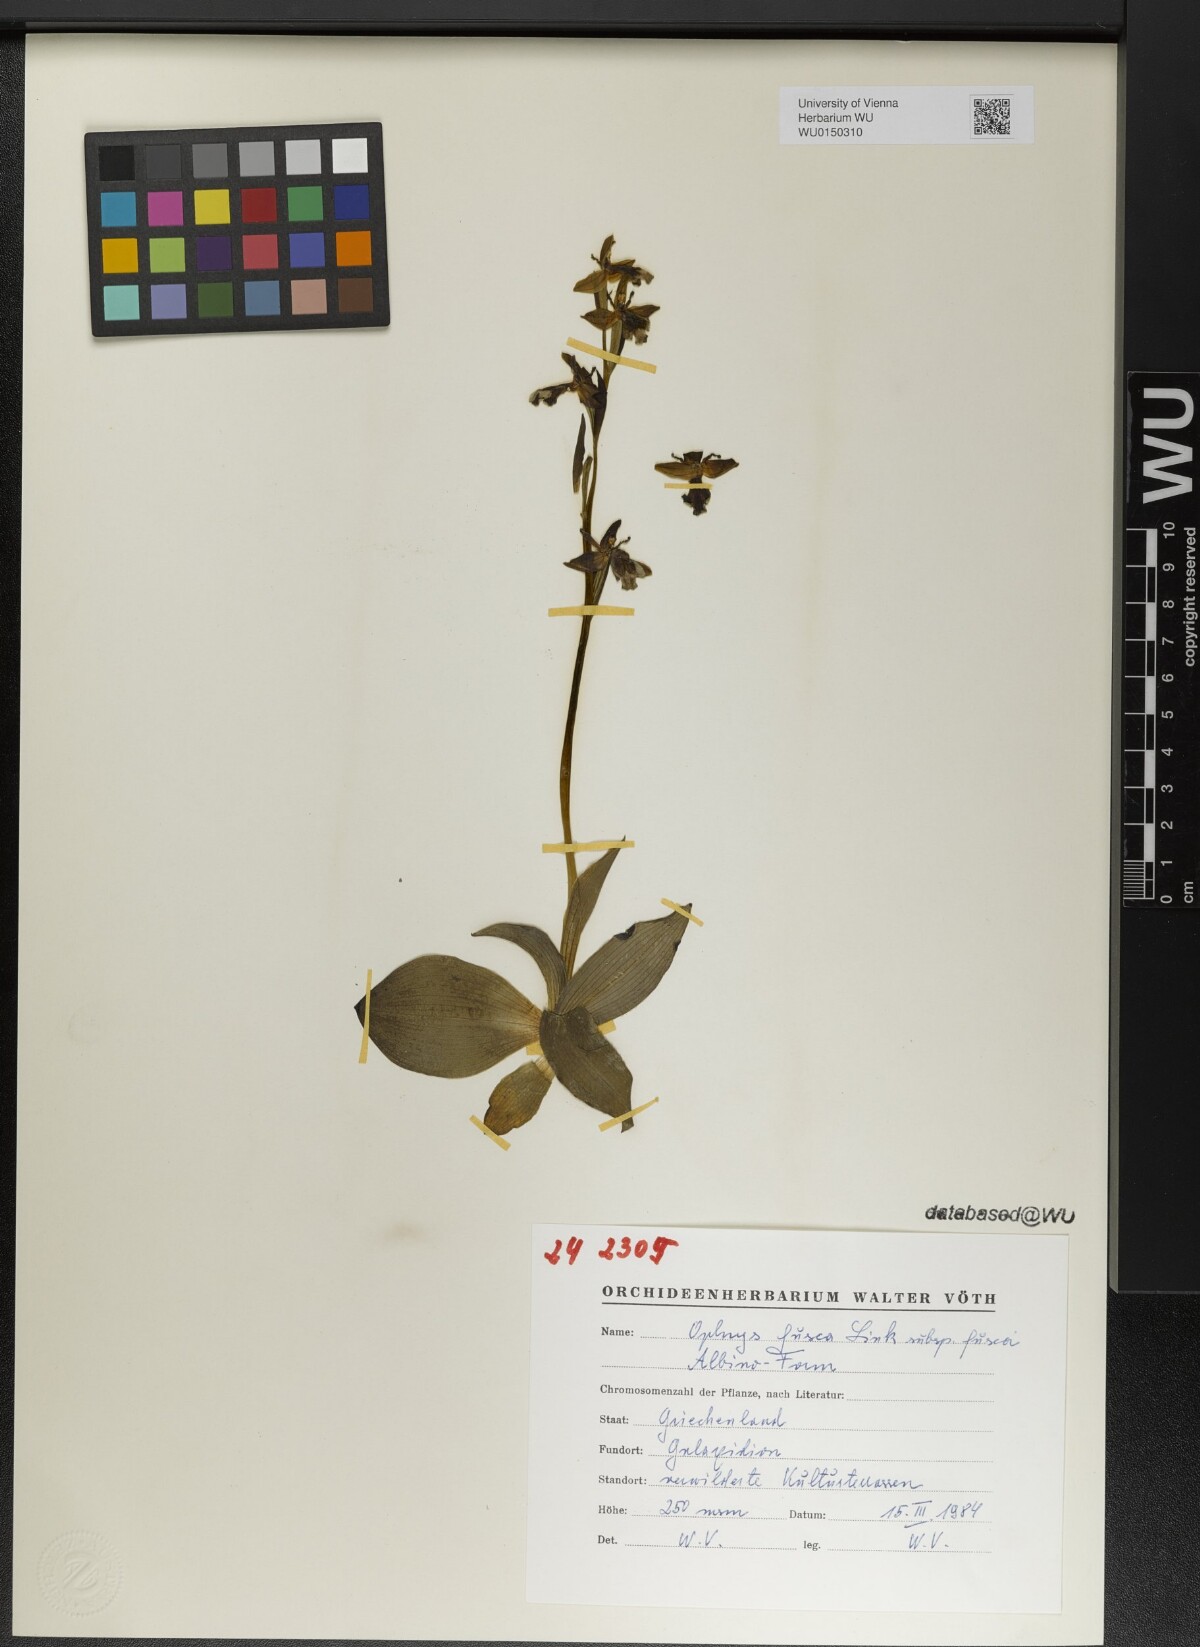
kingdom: Plantae
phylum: Tracheophyta
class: Liliopsida
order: Asparagales
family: Orchidaceae
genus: Ophrys
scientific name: Ophrys fusca
